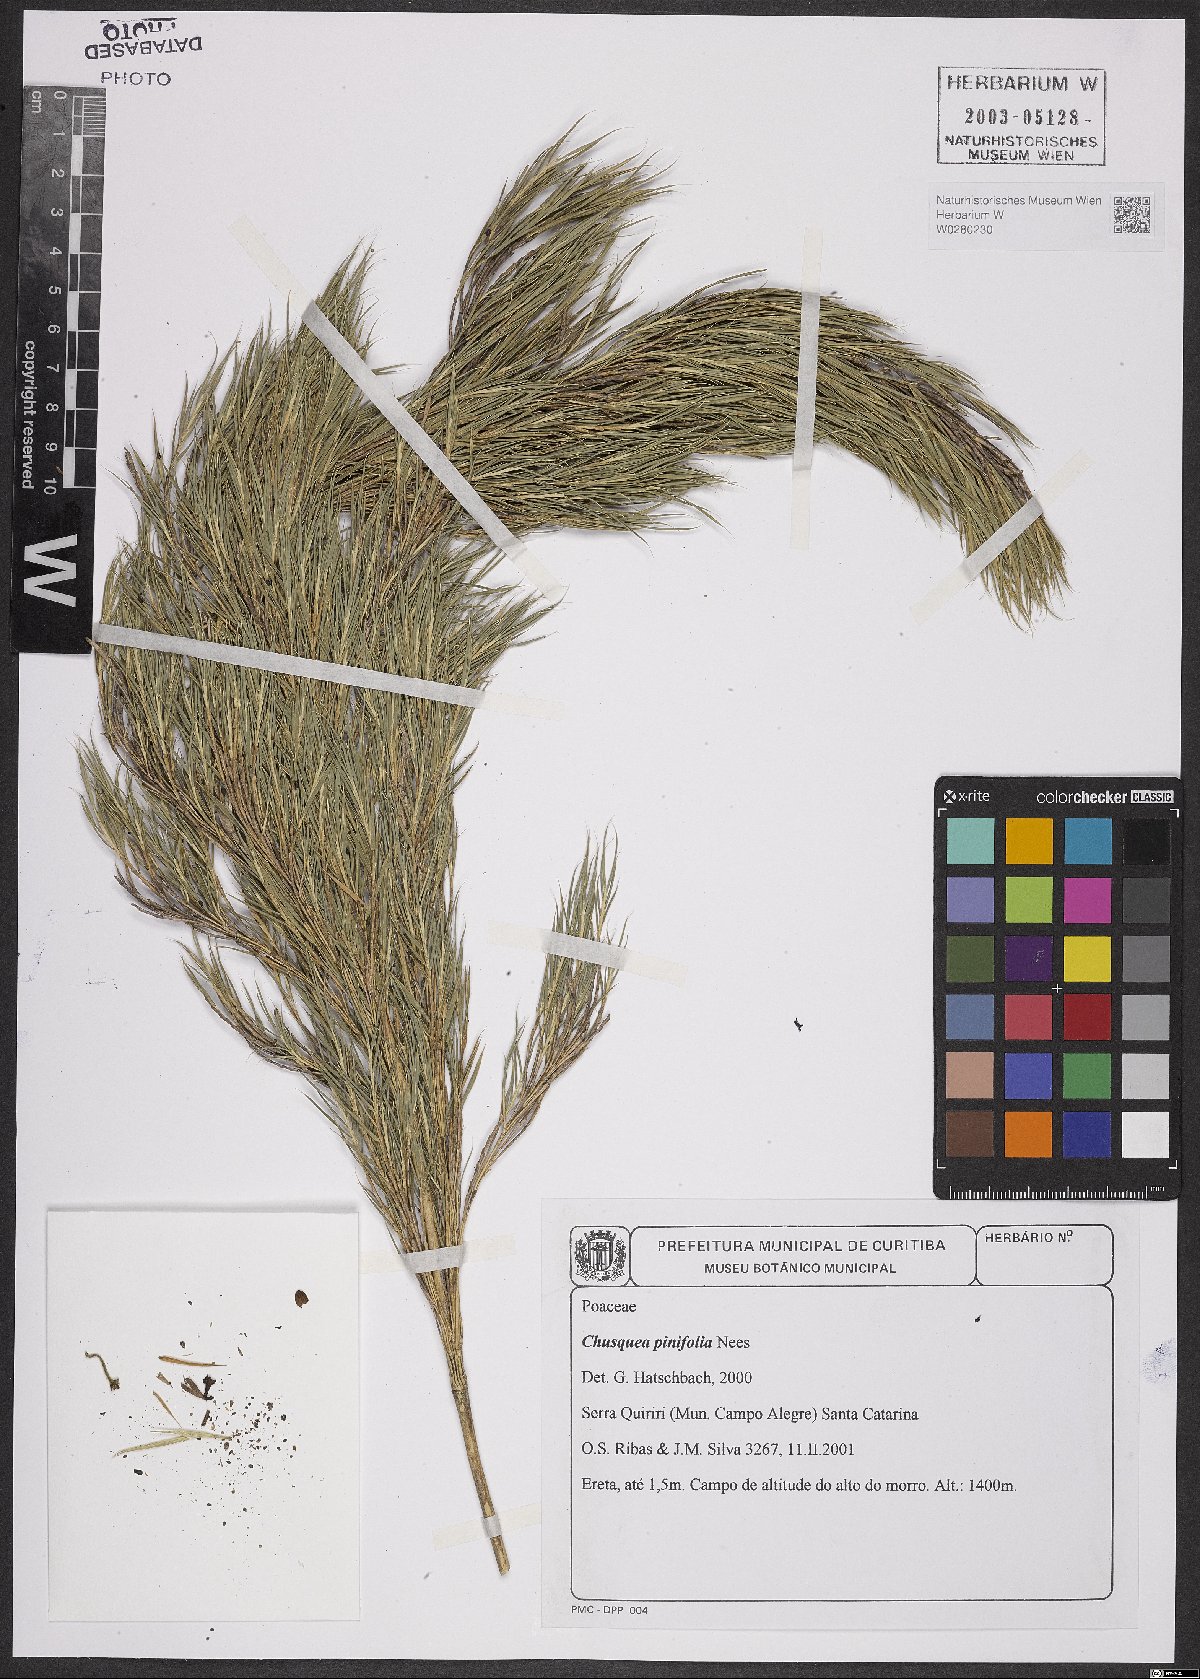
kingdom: Plantae
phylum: Tracheophyta
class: Liliopsida
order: Poales
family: Poaceae
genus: Chusquea
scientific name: Chusquea pinifolia
